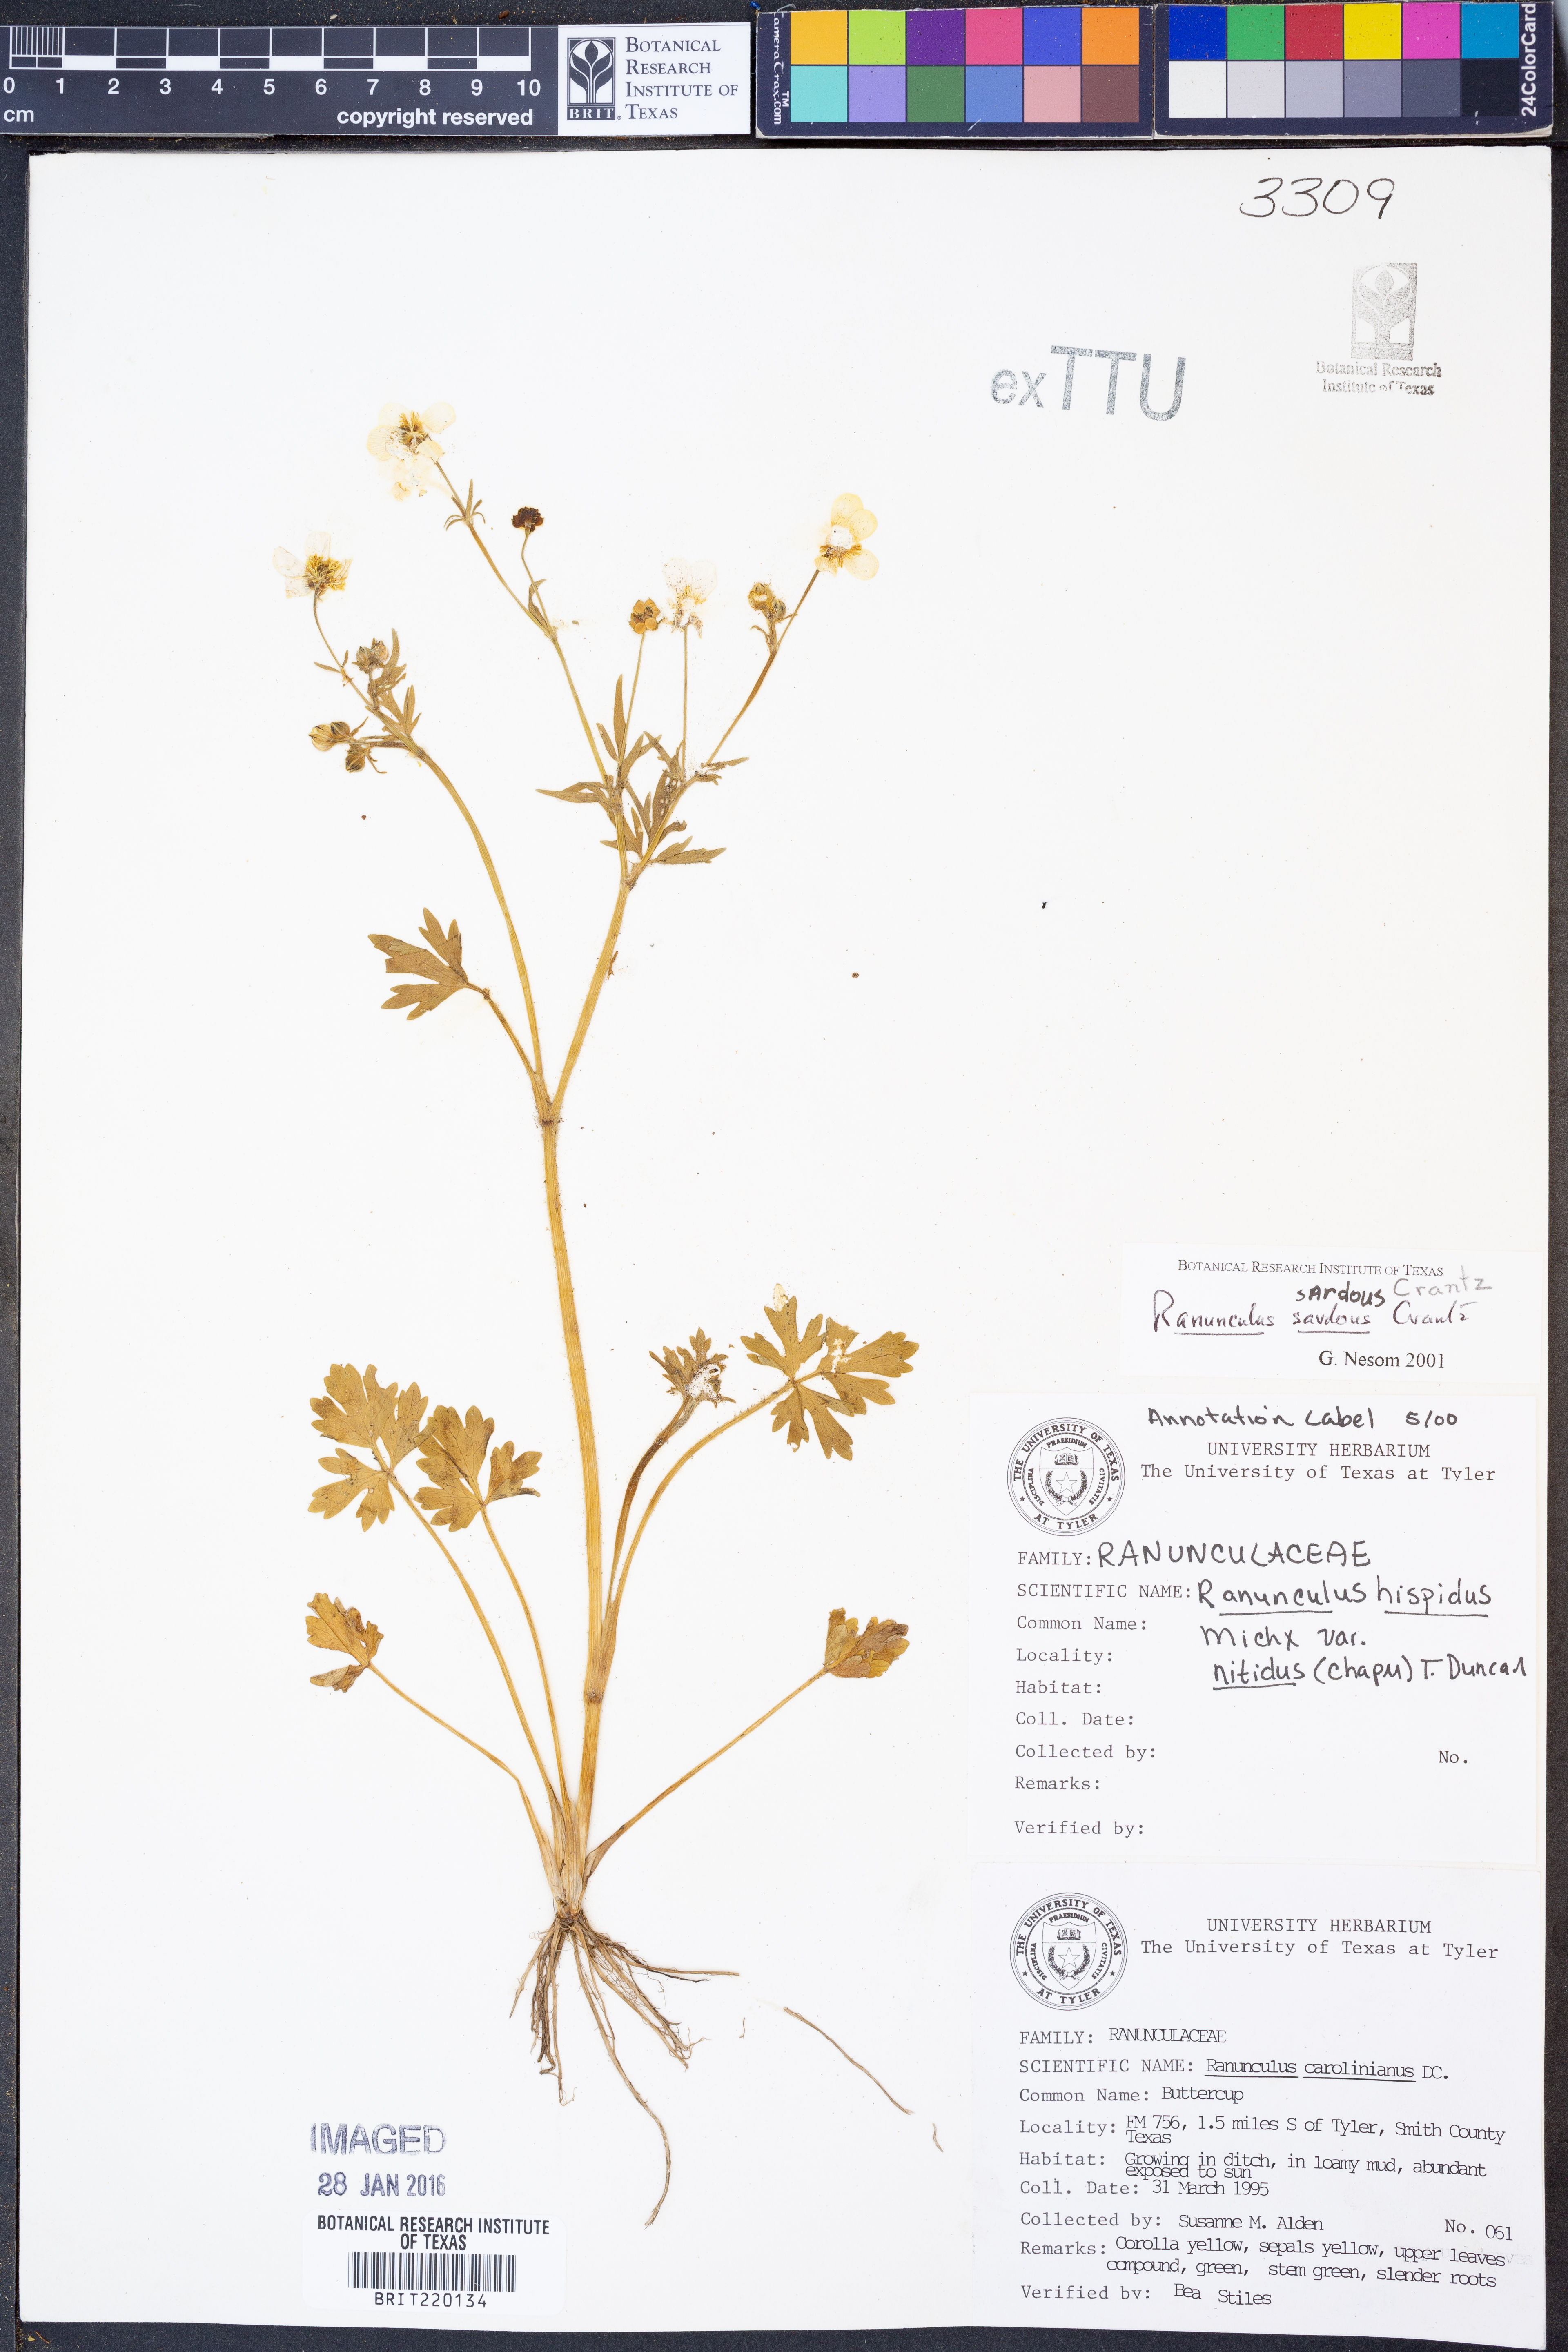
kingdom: Plantae
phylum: Tracheophyta
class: Magnoliopsida
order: Ranunculales
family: Ranunculaceae
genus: Ranunculus
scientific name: Ranunculus hispidus
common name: Bristly buttercup
